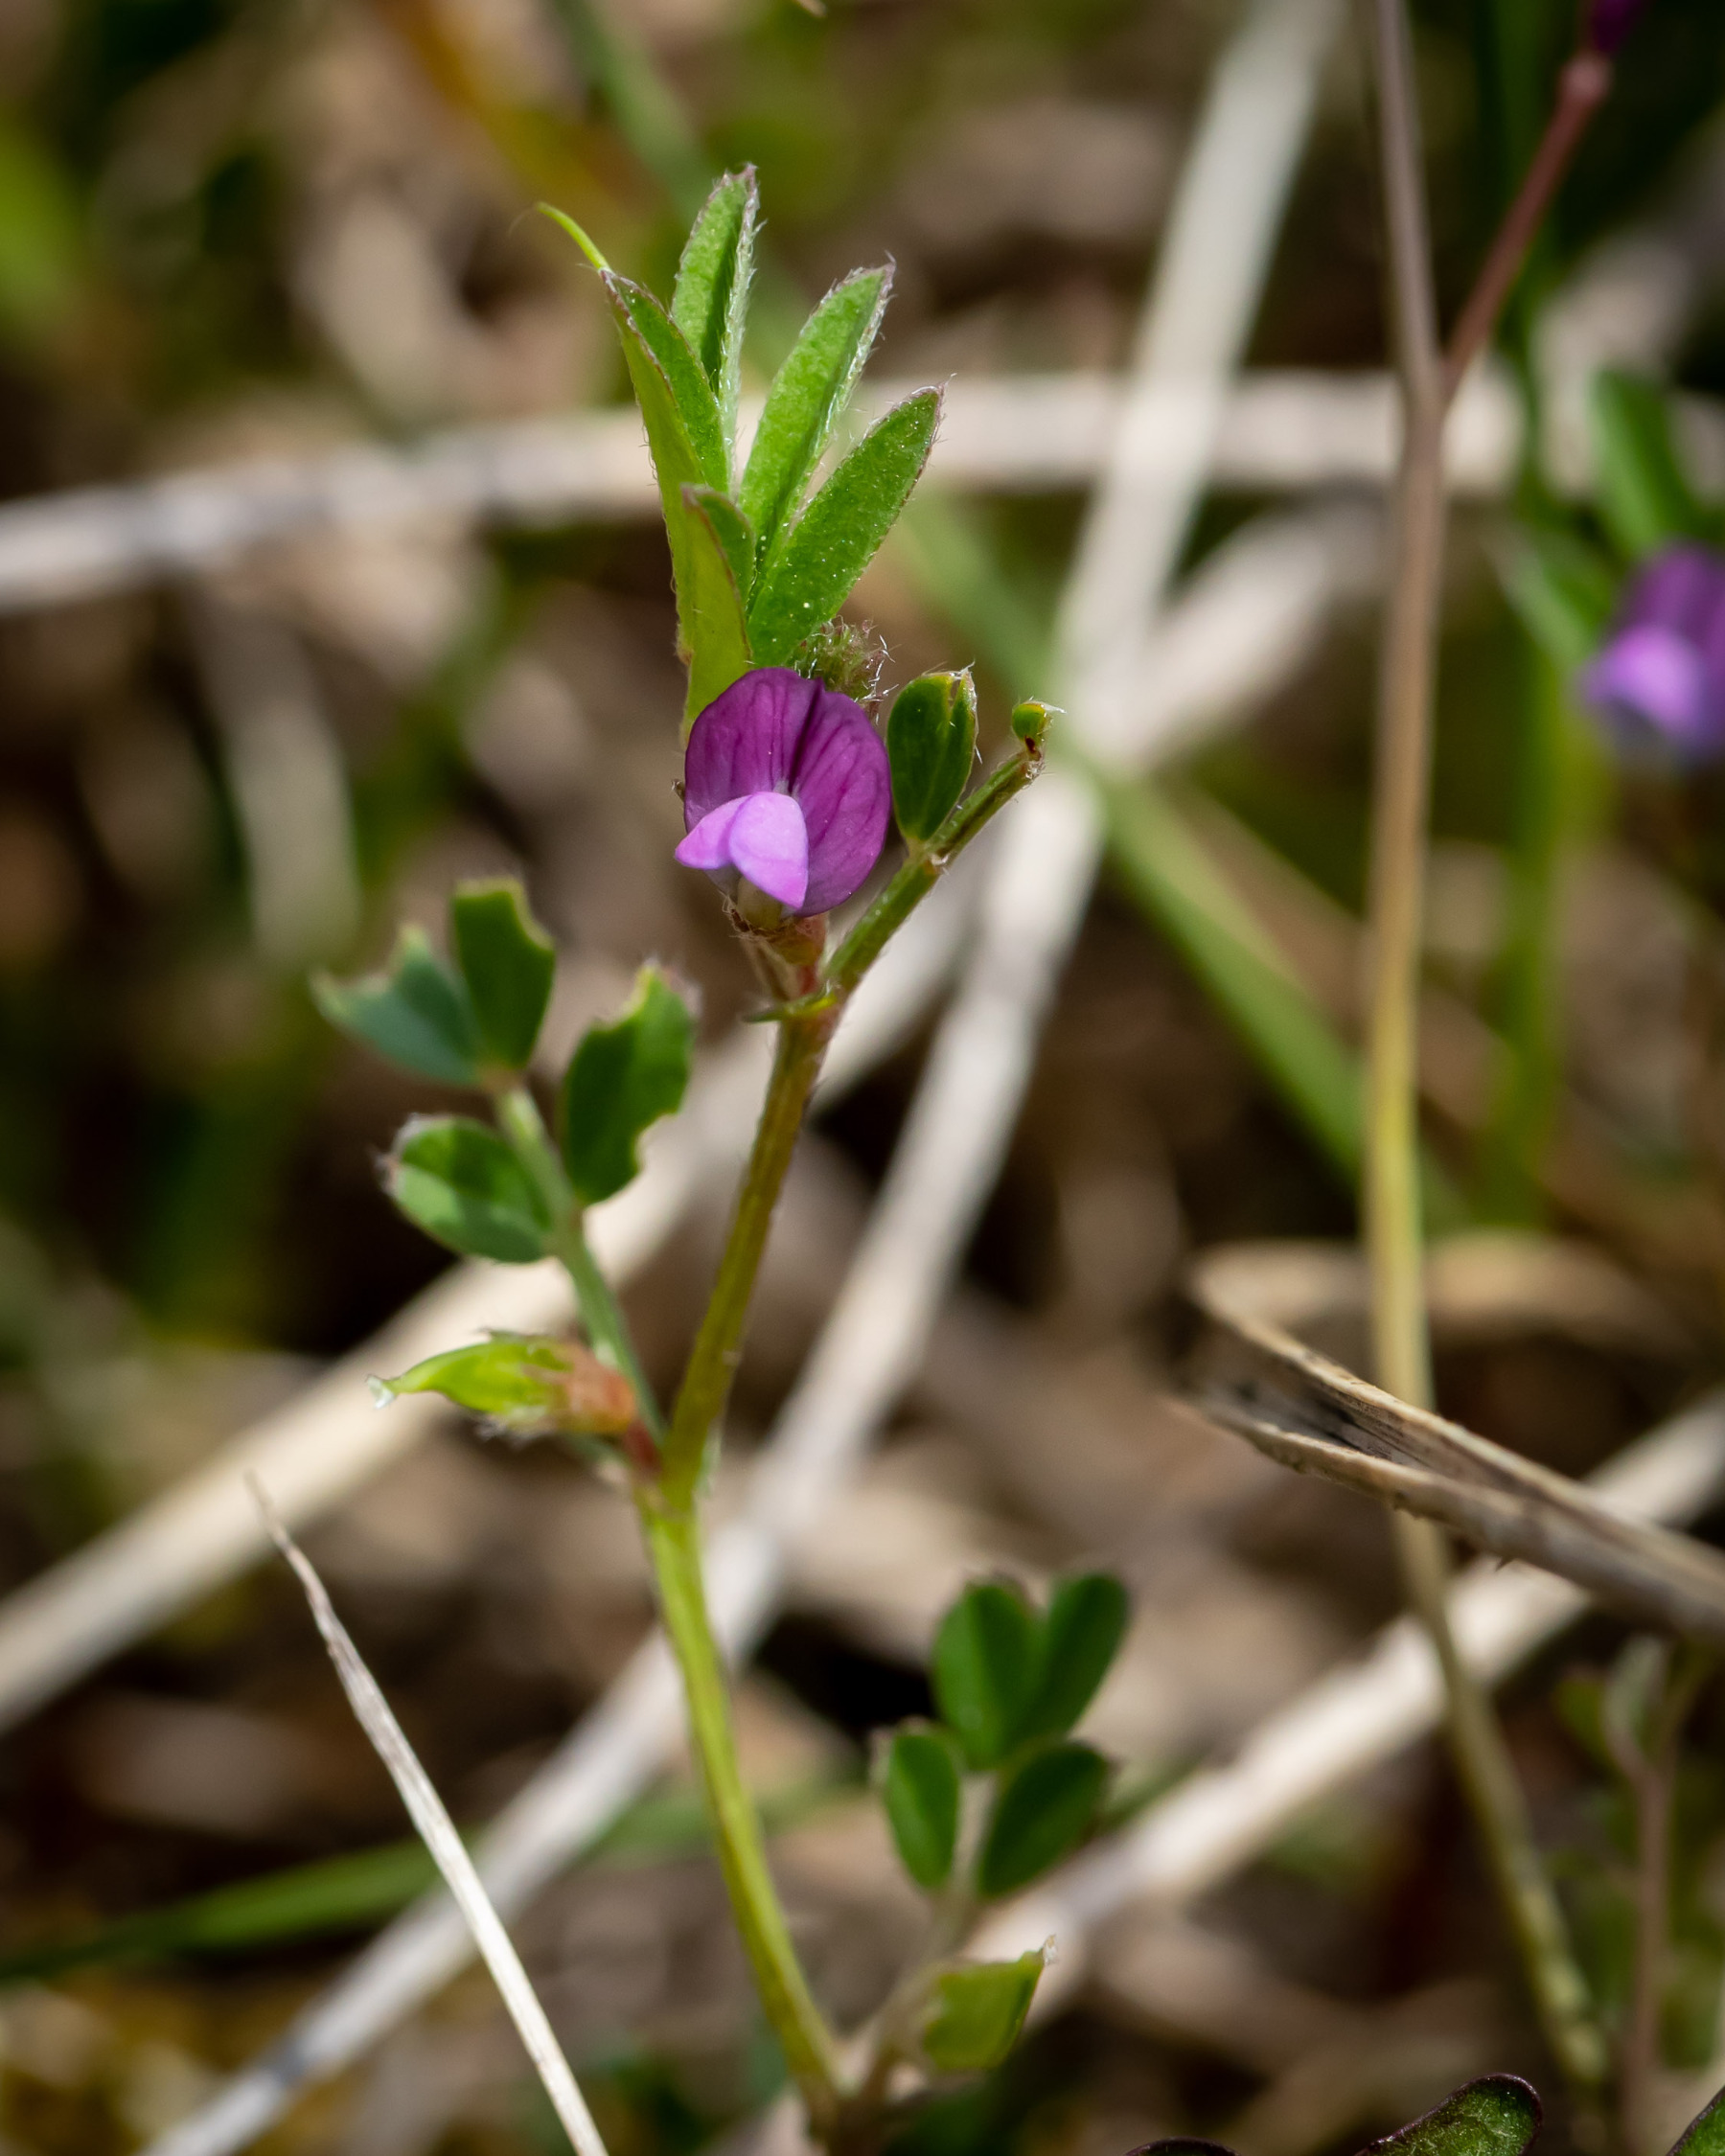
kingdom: Plantae
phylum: Tracheophyta
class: Magnoliopsida
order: Fabales
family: Fabaceae
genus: Vicia
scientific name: Vicia lathyroides
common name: Vår-vikke
